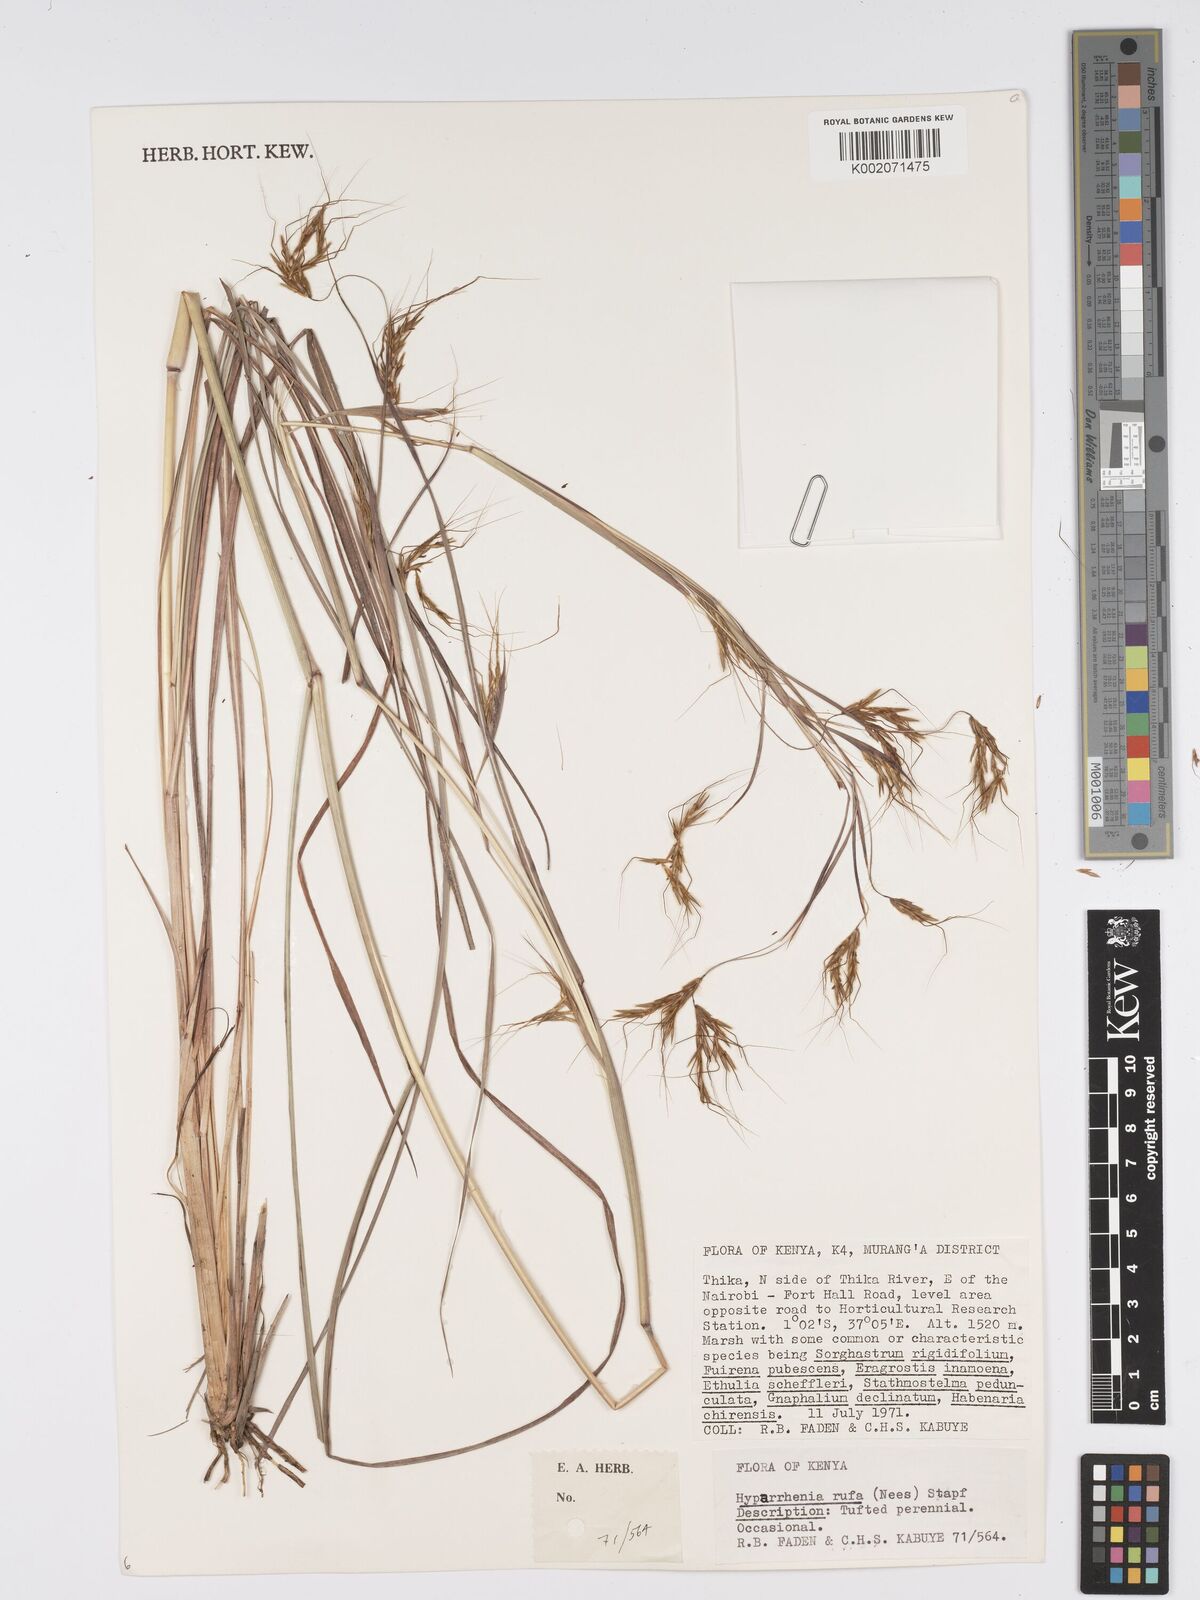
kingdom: Plantae
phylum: Tracheophyta
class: Liliopsida
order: Poales
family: Poaceae
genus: Hyparrhenia
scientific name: Hyparrhenia rufa
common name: Jaraguagrass
